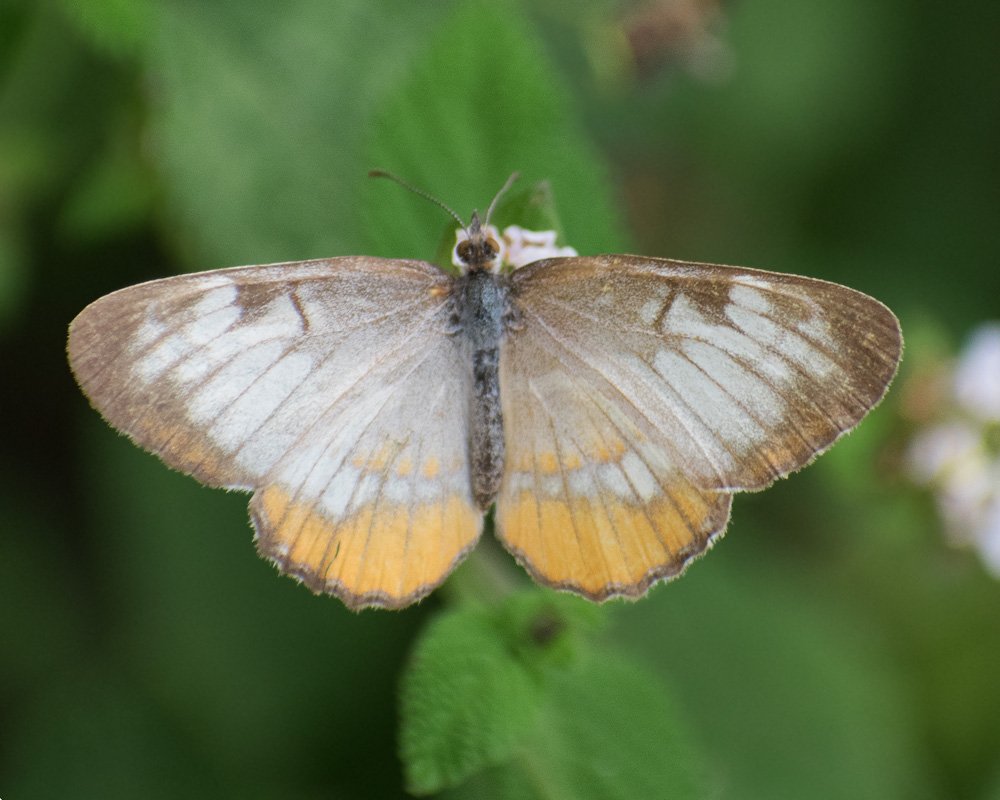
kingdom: Animalia
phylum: Arthropoda
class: Insecta
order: Lepidoptera
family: Nymphalidae
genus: Mestra
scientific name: Mestra amymone
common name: Common Mestra
